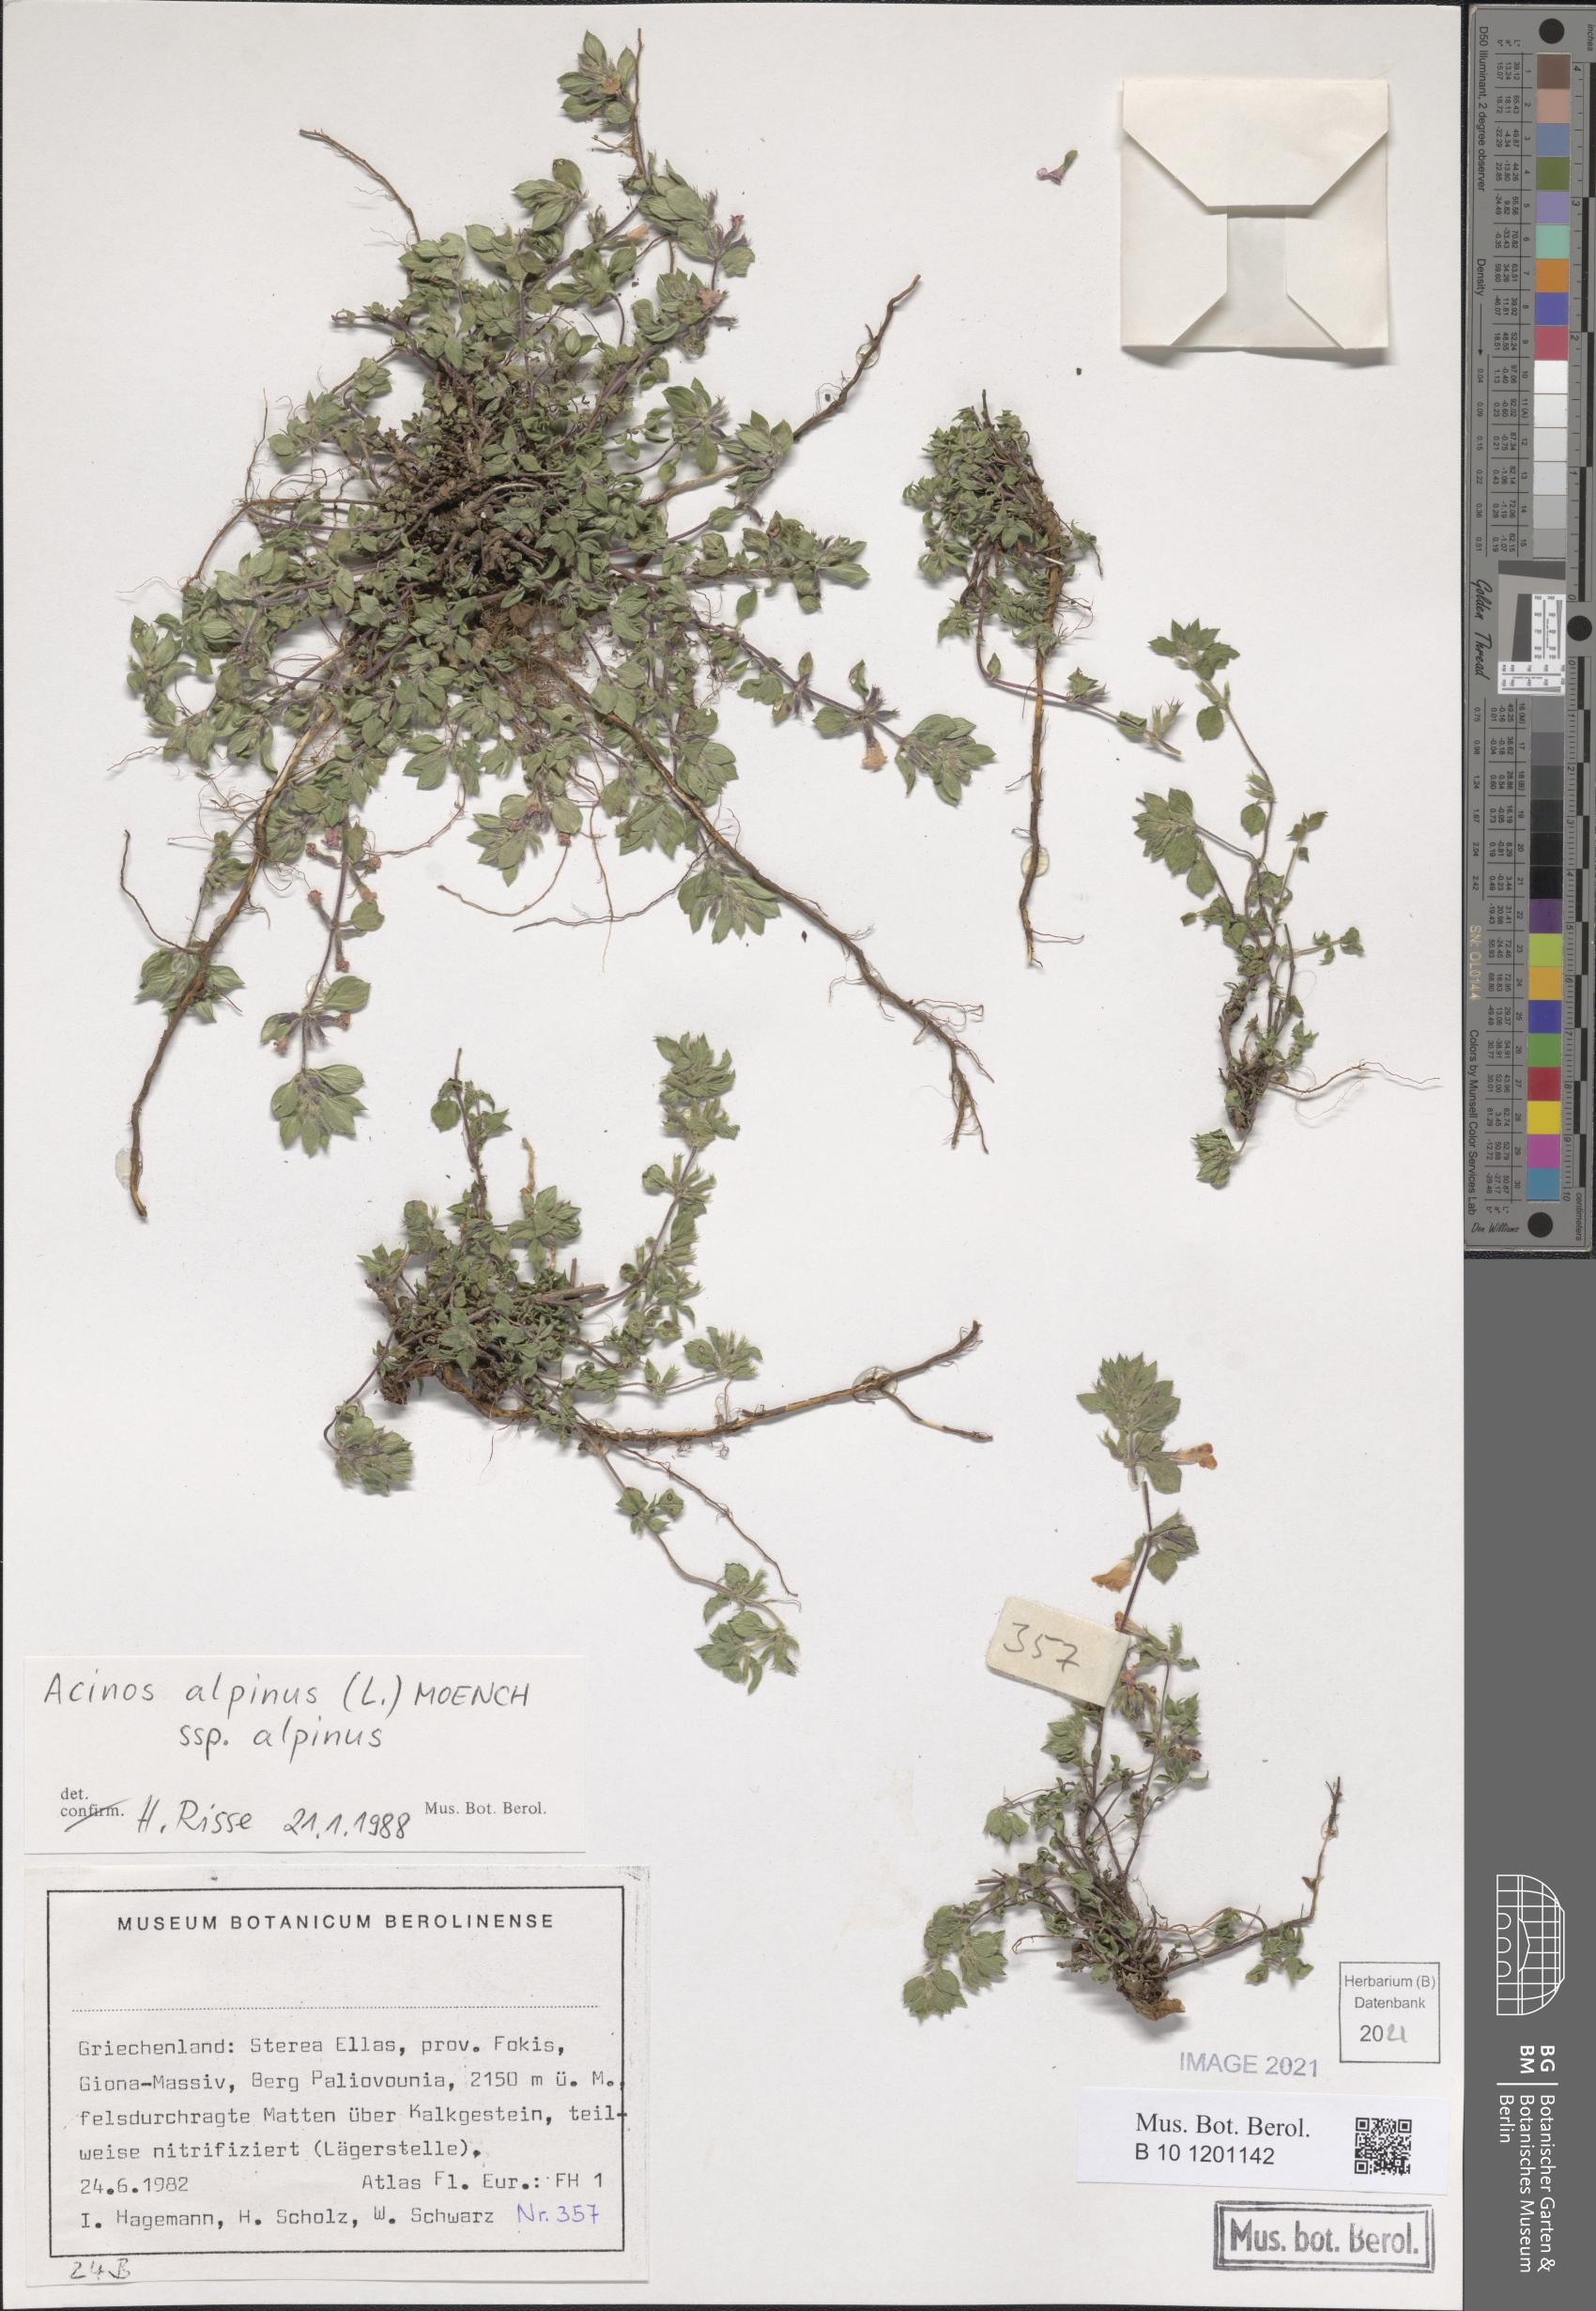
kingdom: Plantae
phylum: Tracheophyta
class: Magnoliopsida
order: Lamiales
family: Lamiaceae
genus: Clinopodium
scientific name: Clinopodium alpinum
